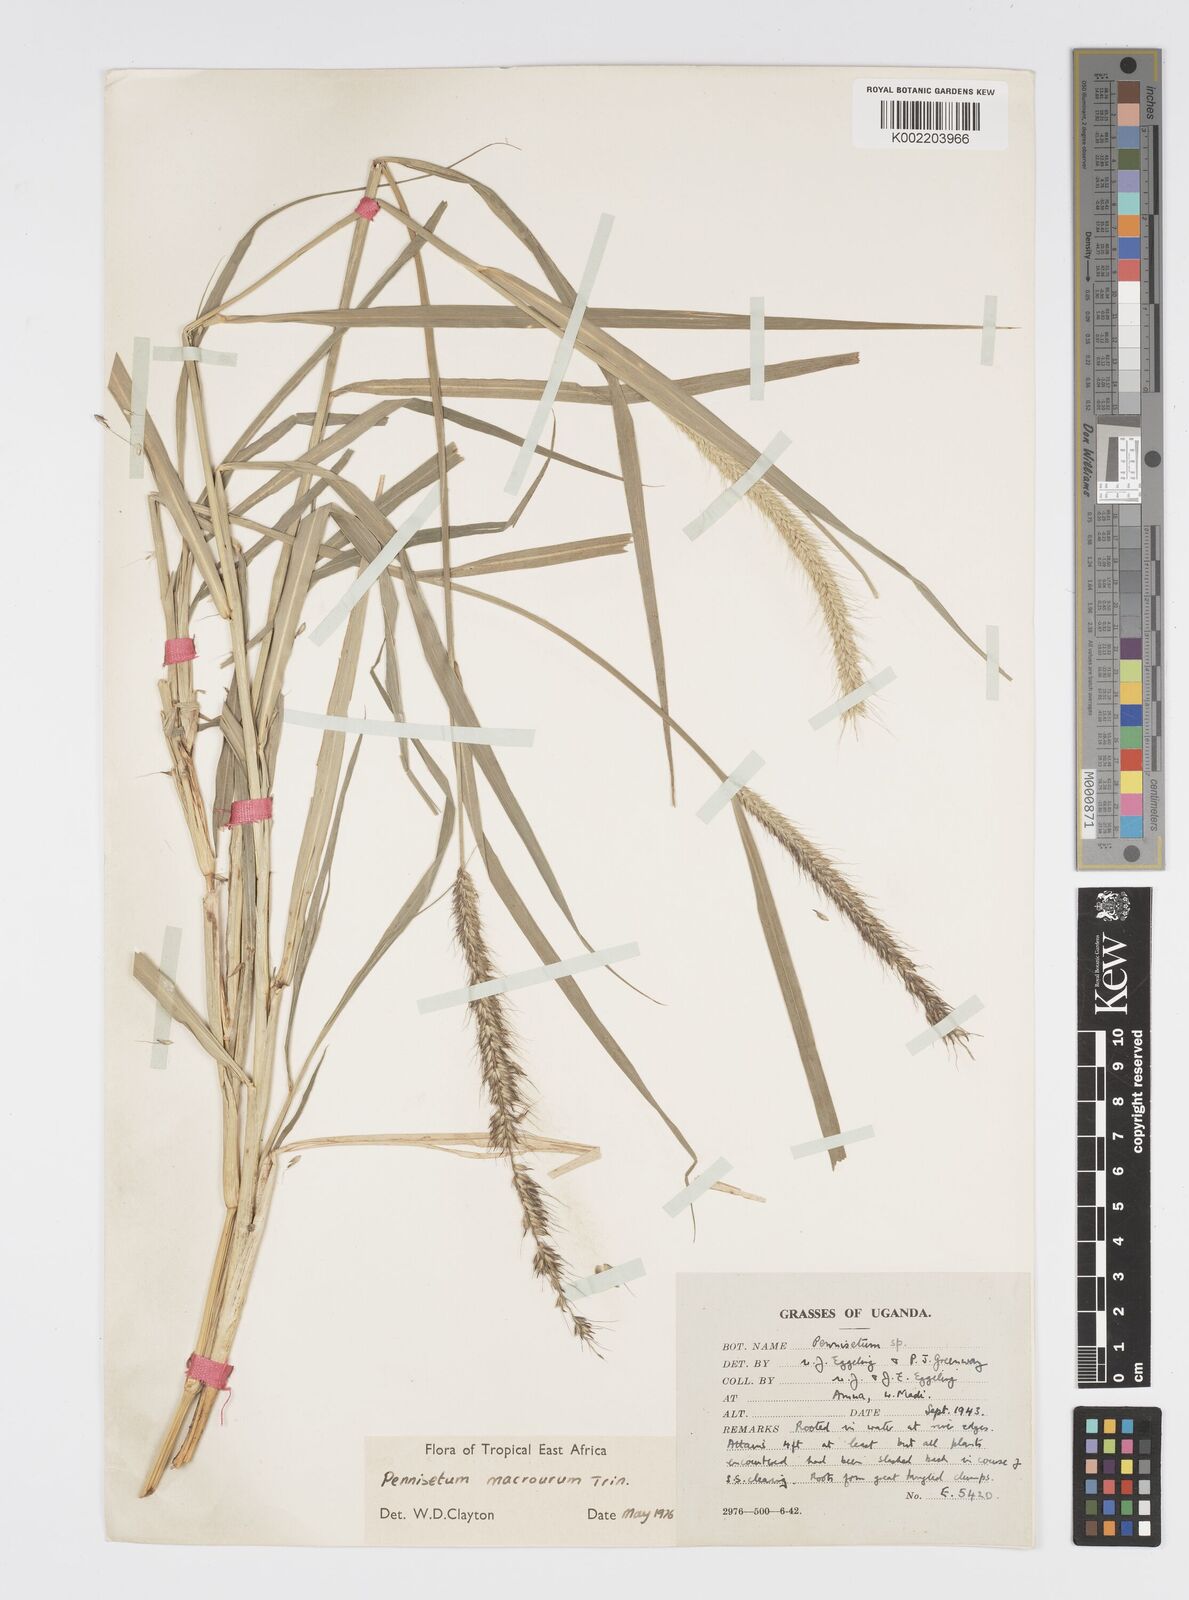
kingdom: Plantae
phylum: Tracheophyta
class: Liliopsida
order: Poales
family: Poaceae
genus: Cenchrus
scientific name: Cenchrus caudatus
